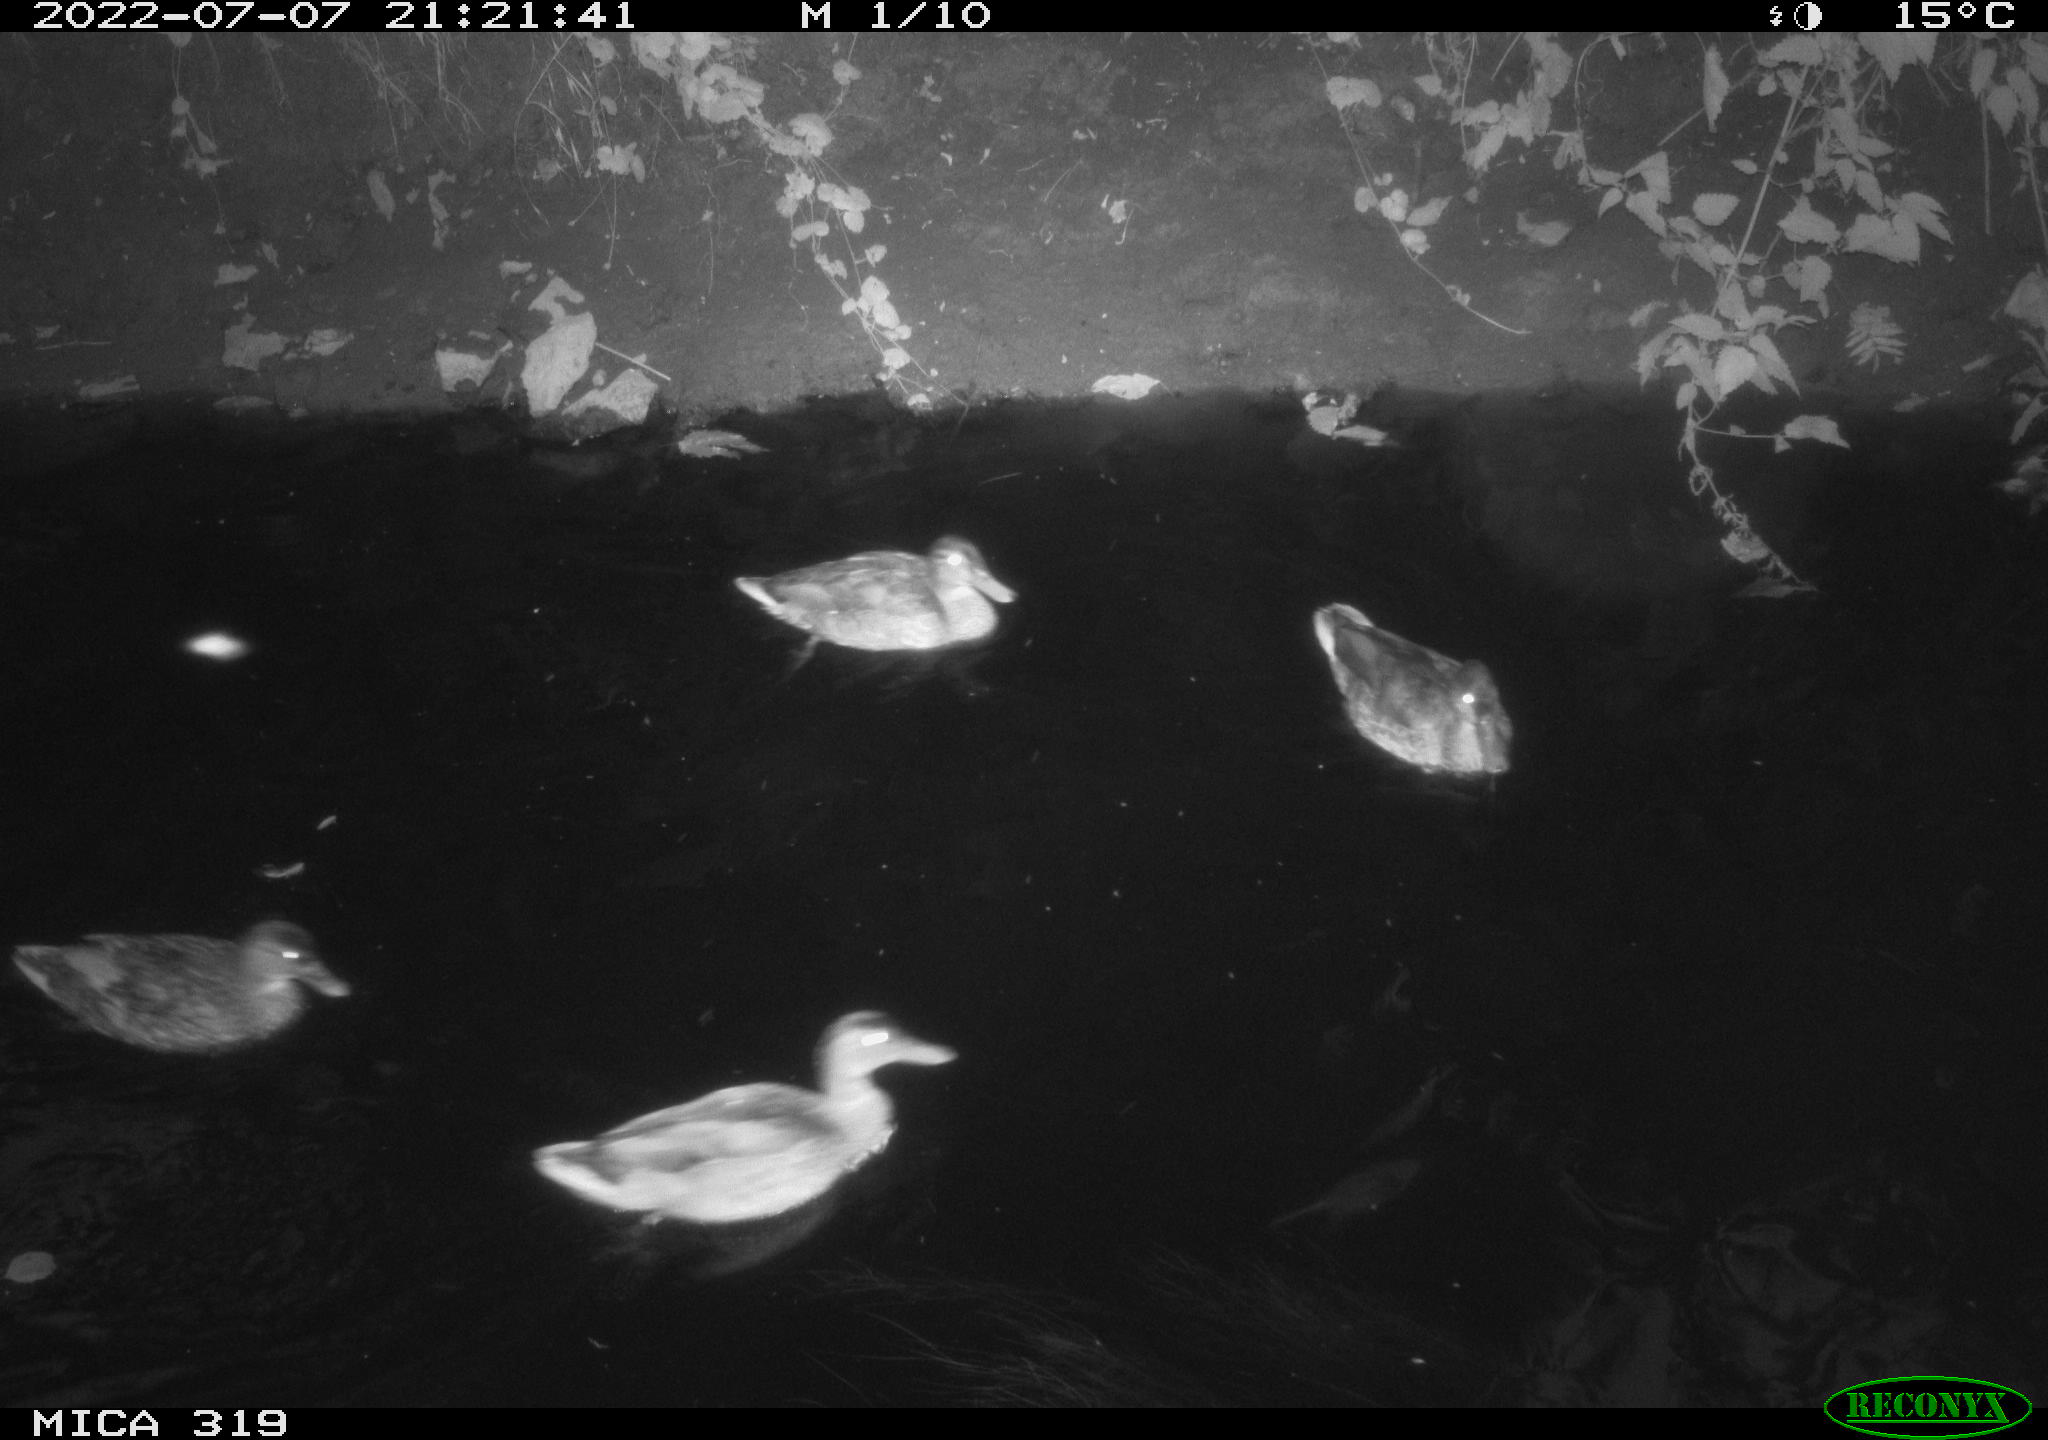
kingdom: Animalia
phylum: Chordata
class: Aves
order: Anseriformes
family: Anatidae
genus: Anas
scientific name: Anas platyrhynchos
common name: Mallard
